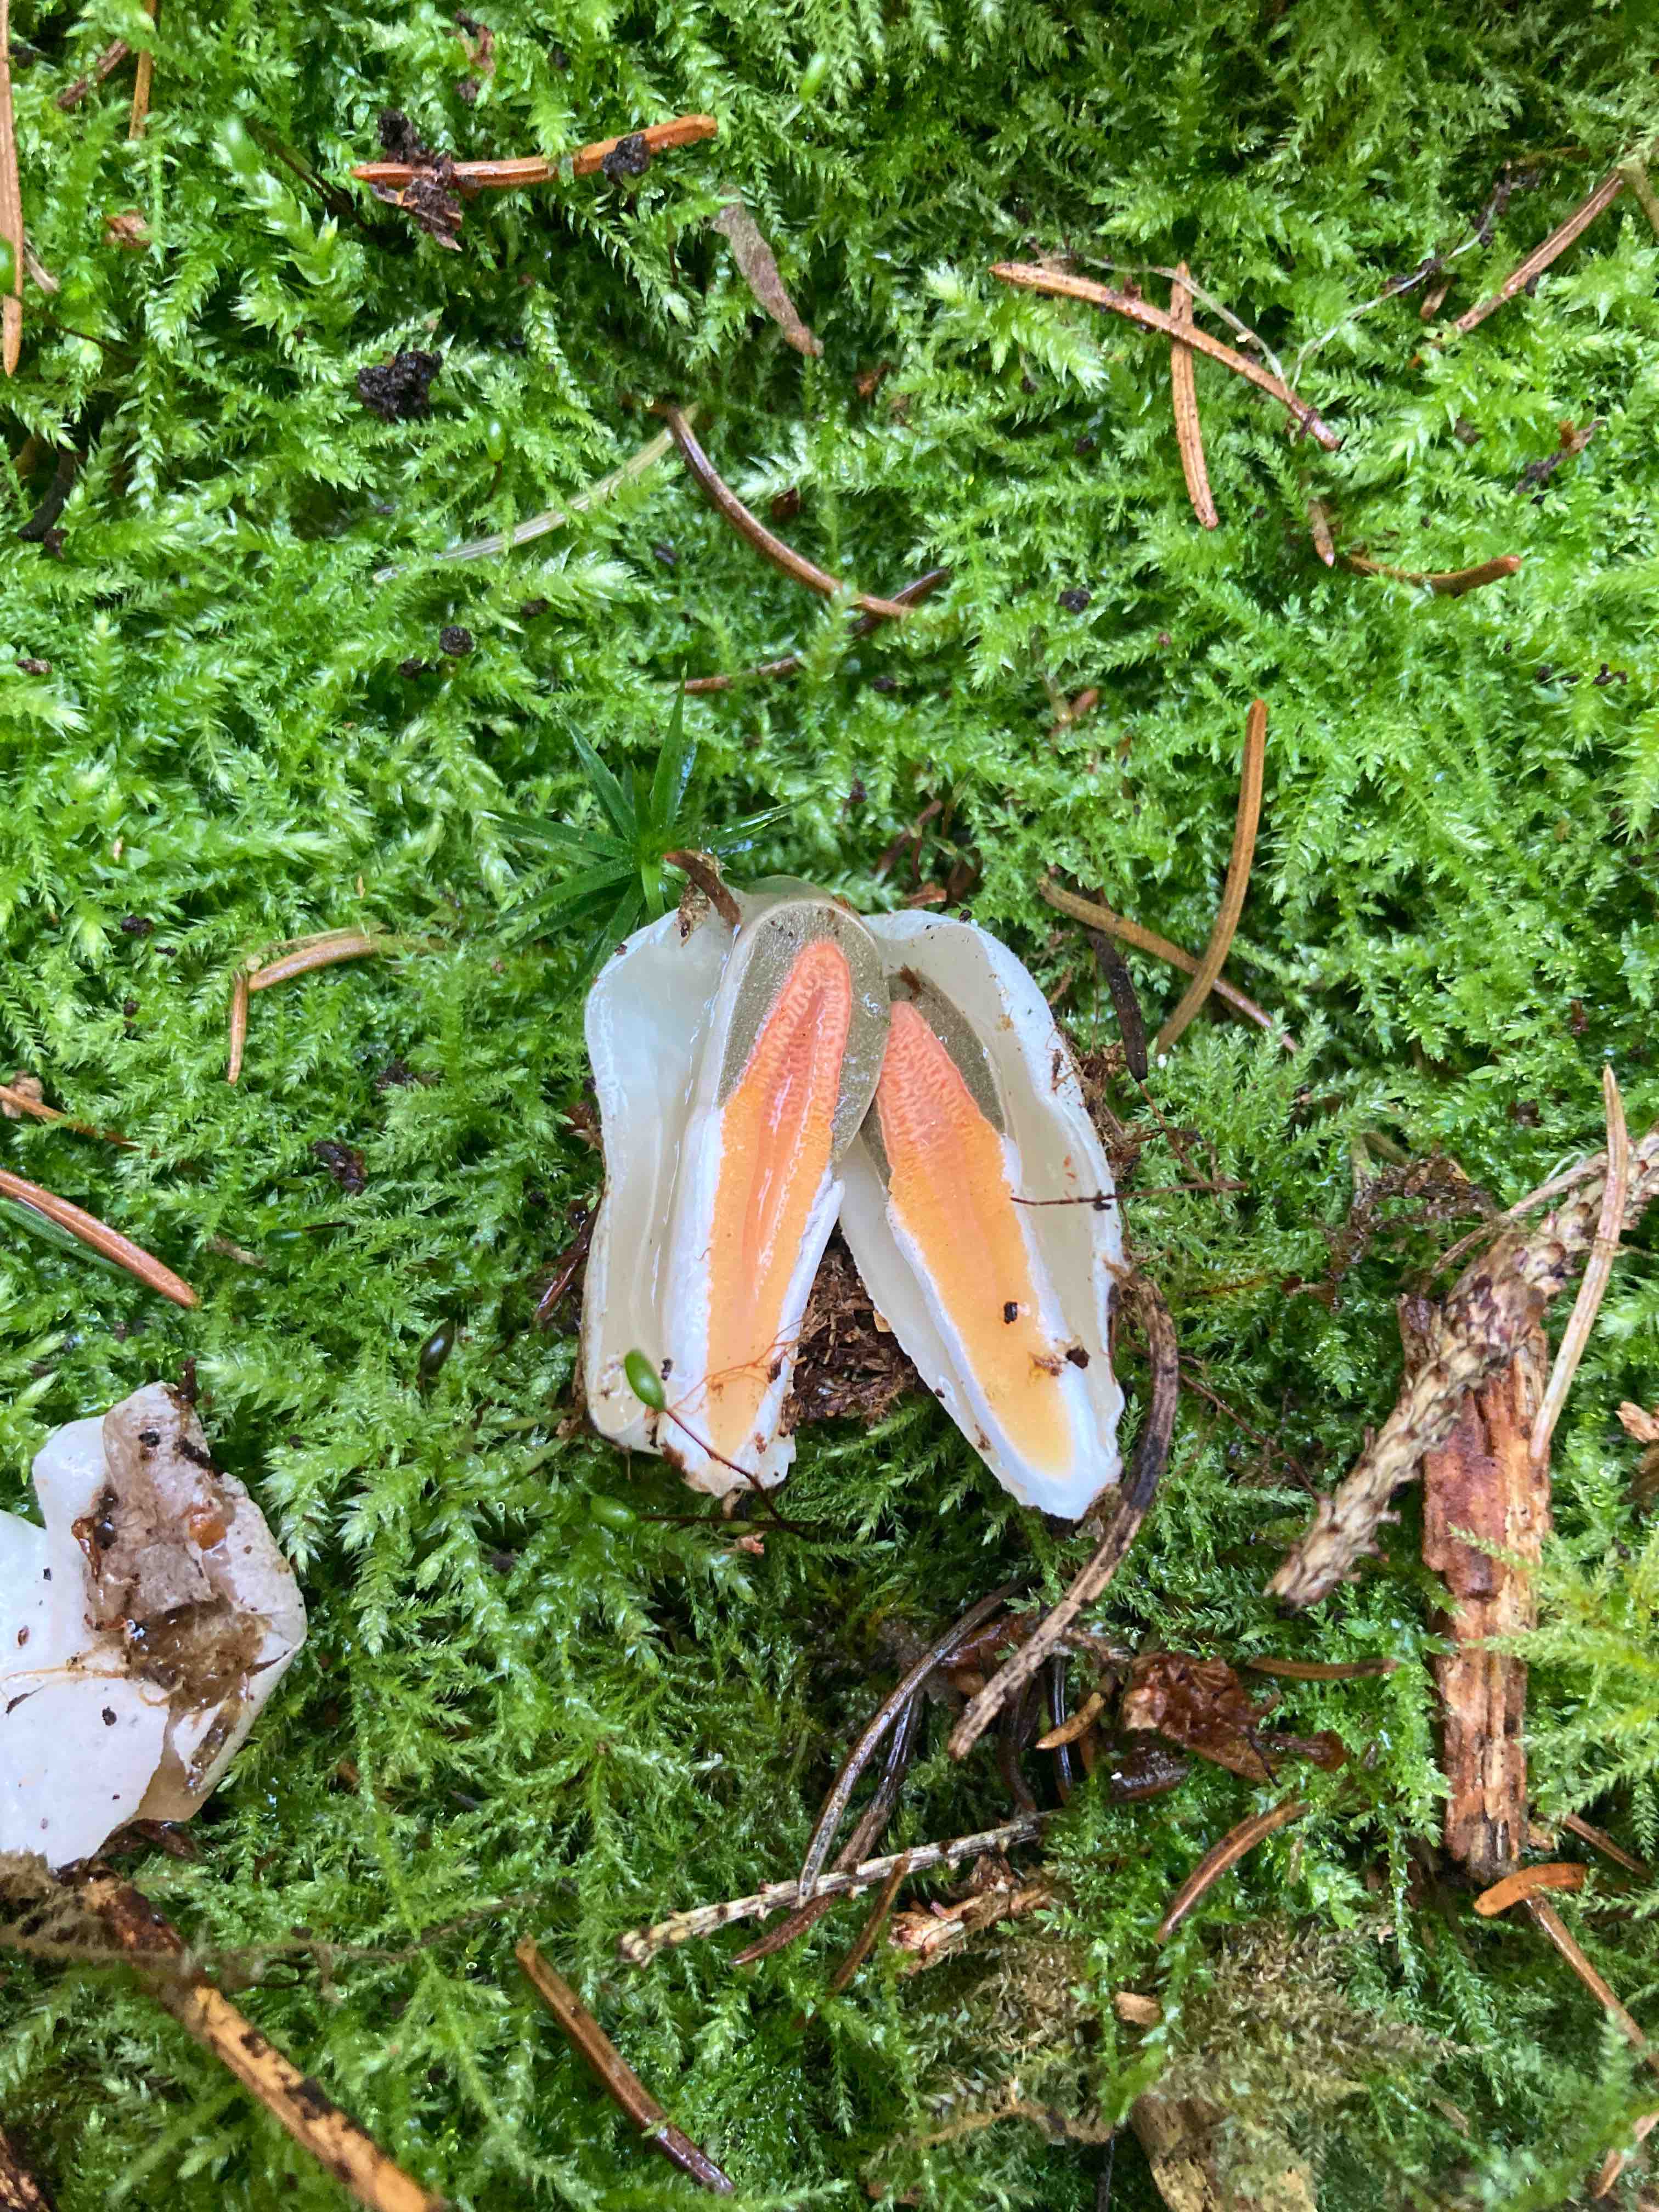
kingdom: Fungi
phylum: Basidiomycota
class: Agaricomycetes
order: Phallales
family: Phallaceae
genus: Mutinus
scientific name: Mutinus caninus
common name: hunde-stinksvamp
